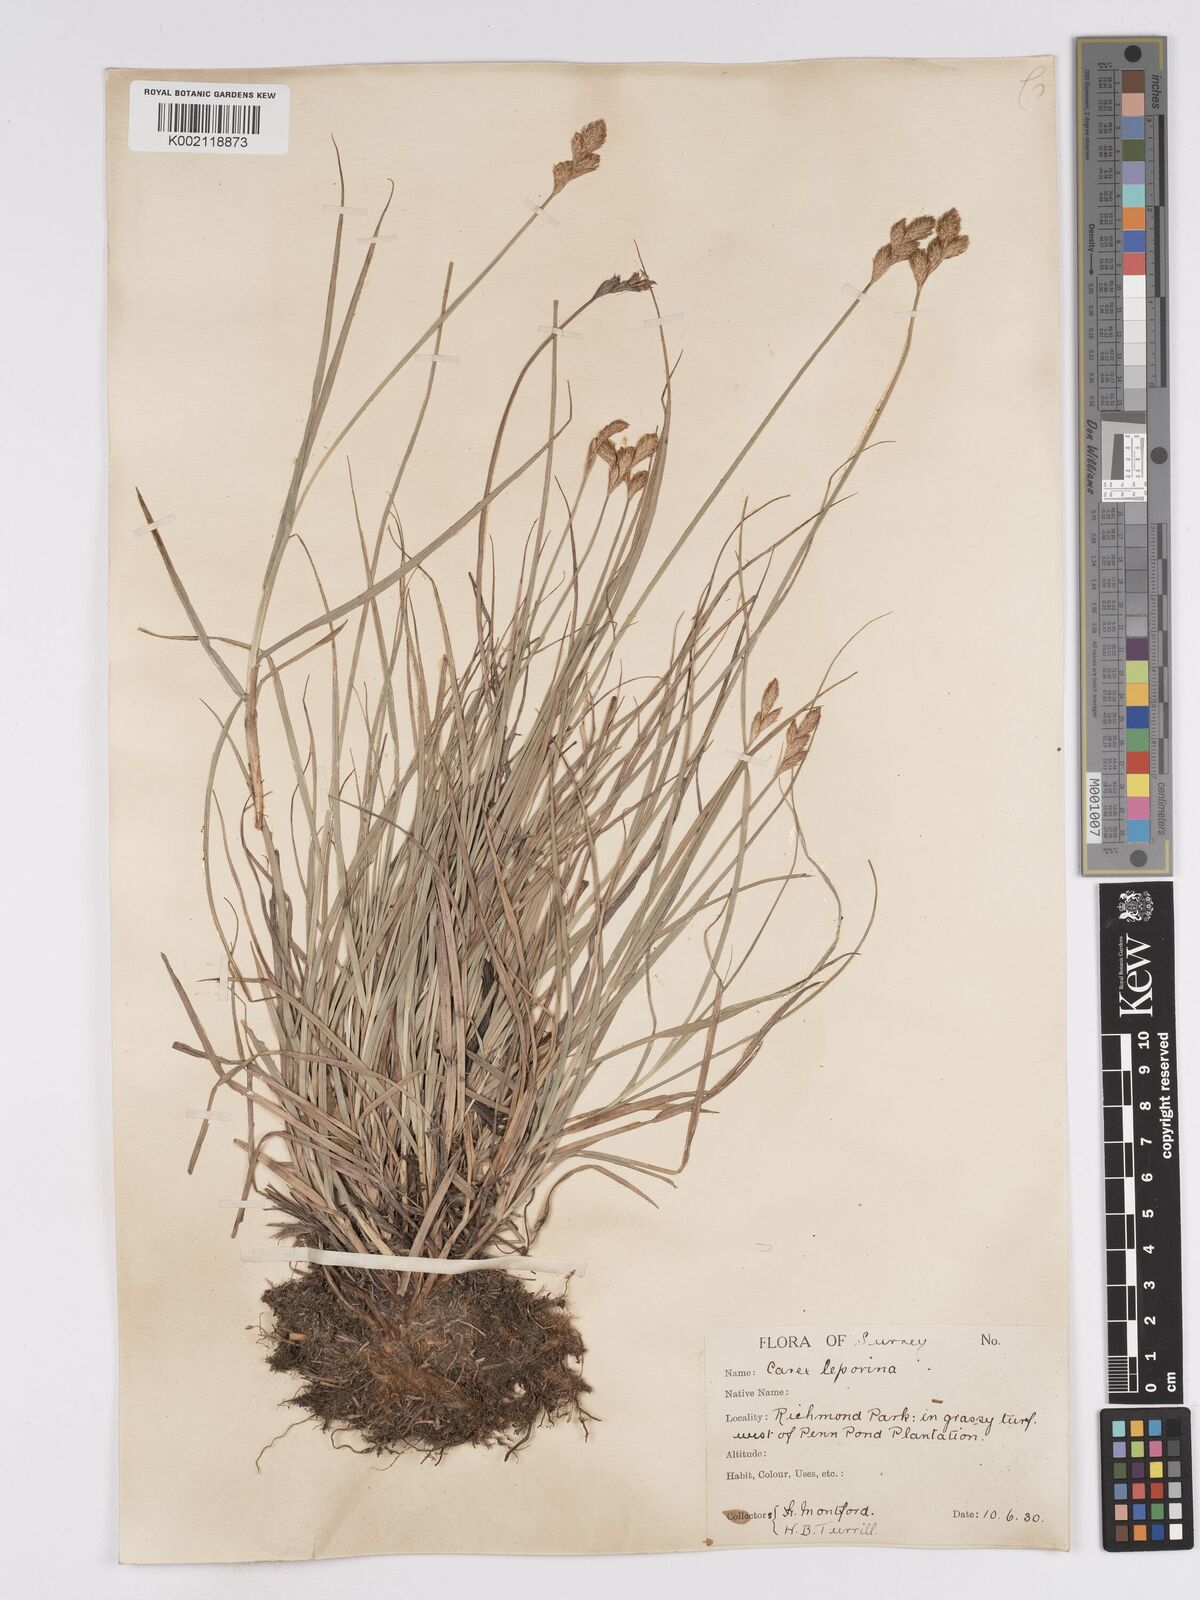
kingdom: Plantae
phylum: Tracheophyta
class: Liliopsida
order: Poales
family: Cyperaceae
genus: Carex
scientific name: Carex leporina
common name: Oval sedge
